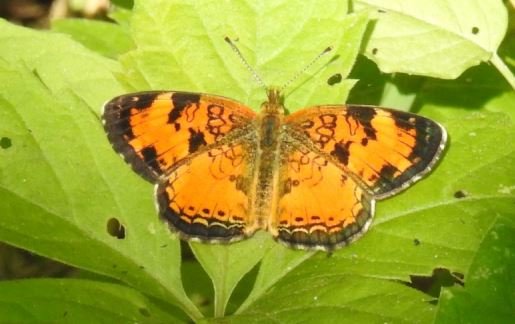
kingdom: Animalia
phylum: Arthropoda
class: Insecta
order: Lepidoptera
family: Nymphalidae
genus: Phyciodes
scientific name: Phyciodes tharos
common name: Northern Crescent
